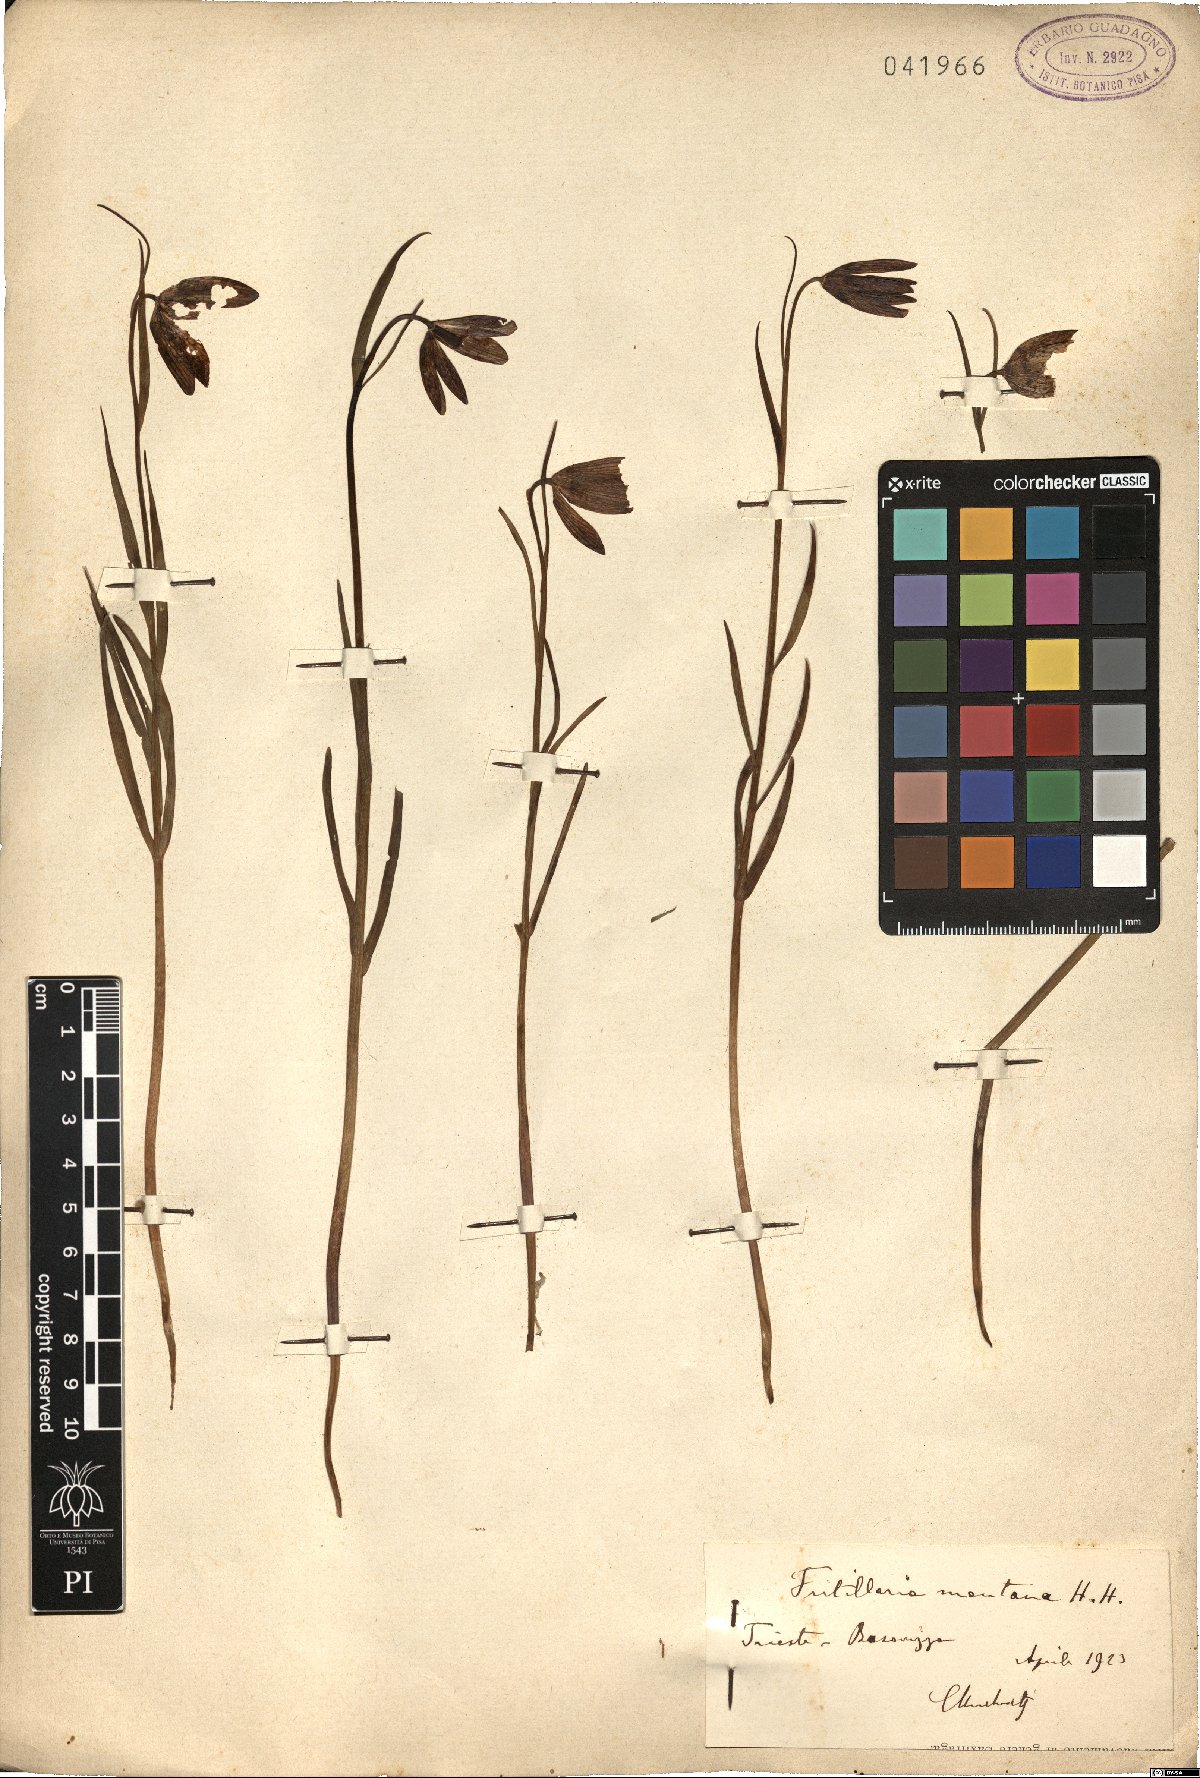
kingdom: Plantae
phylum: Tracheophyta
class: Liliopsida
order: Liliales
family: Liliaceae
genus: Fritillaria
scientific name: Fritillaria montana
